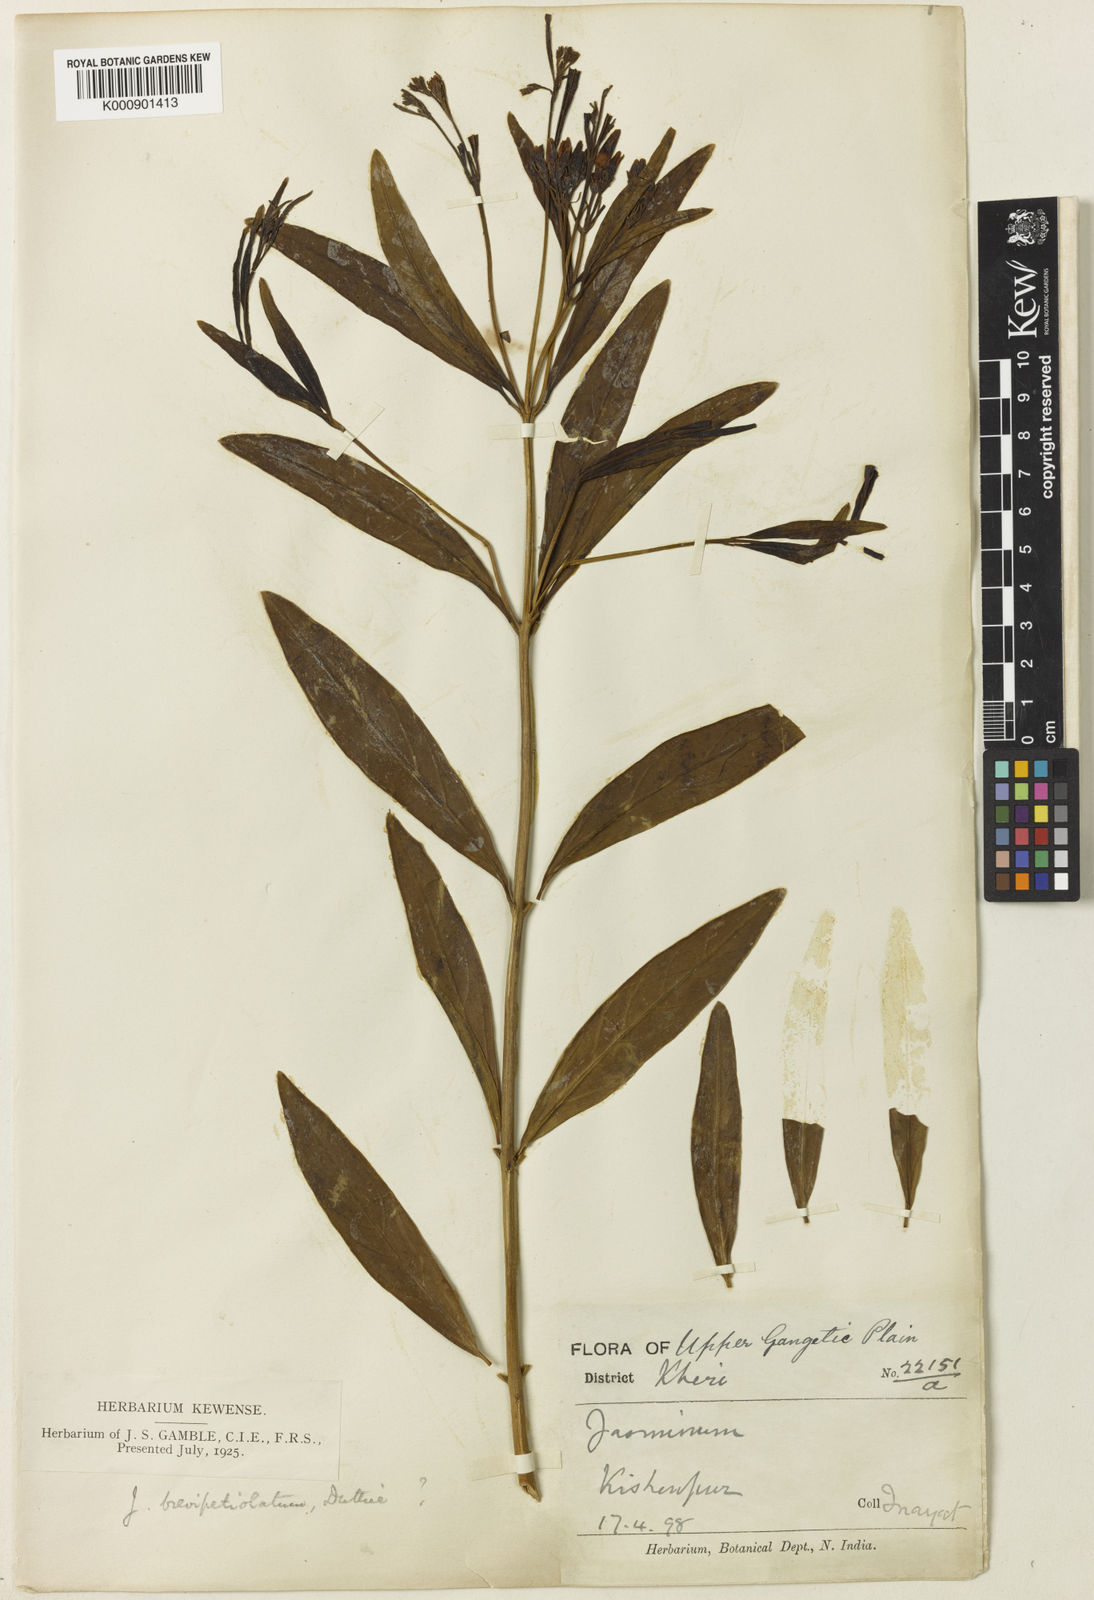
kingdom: Plantae
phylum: Tracheophyta
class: Magnoliopsida
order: Lamiales
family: Oleaceae
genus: Jasminum
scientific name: Jasminum
